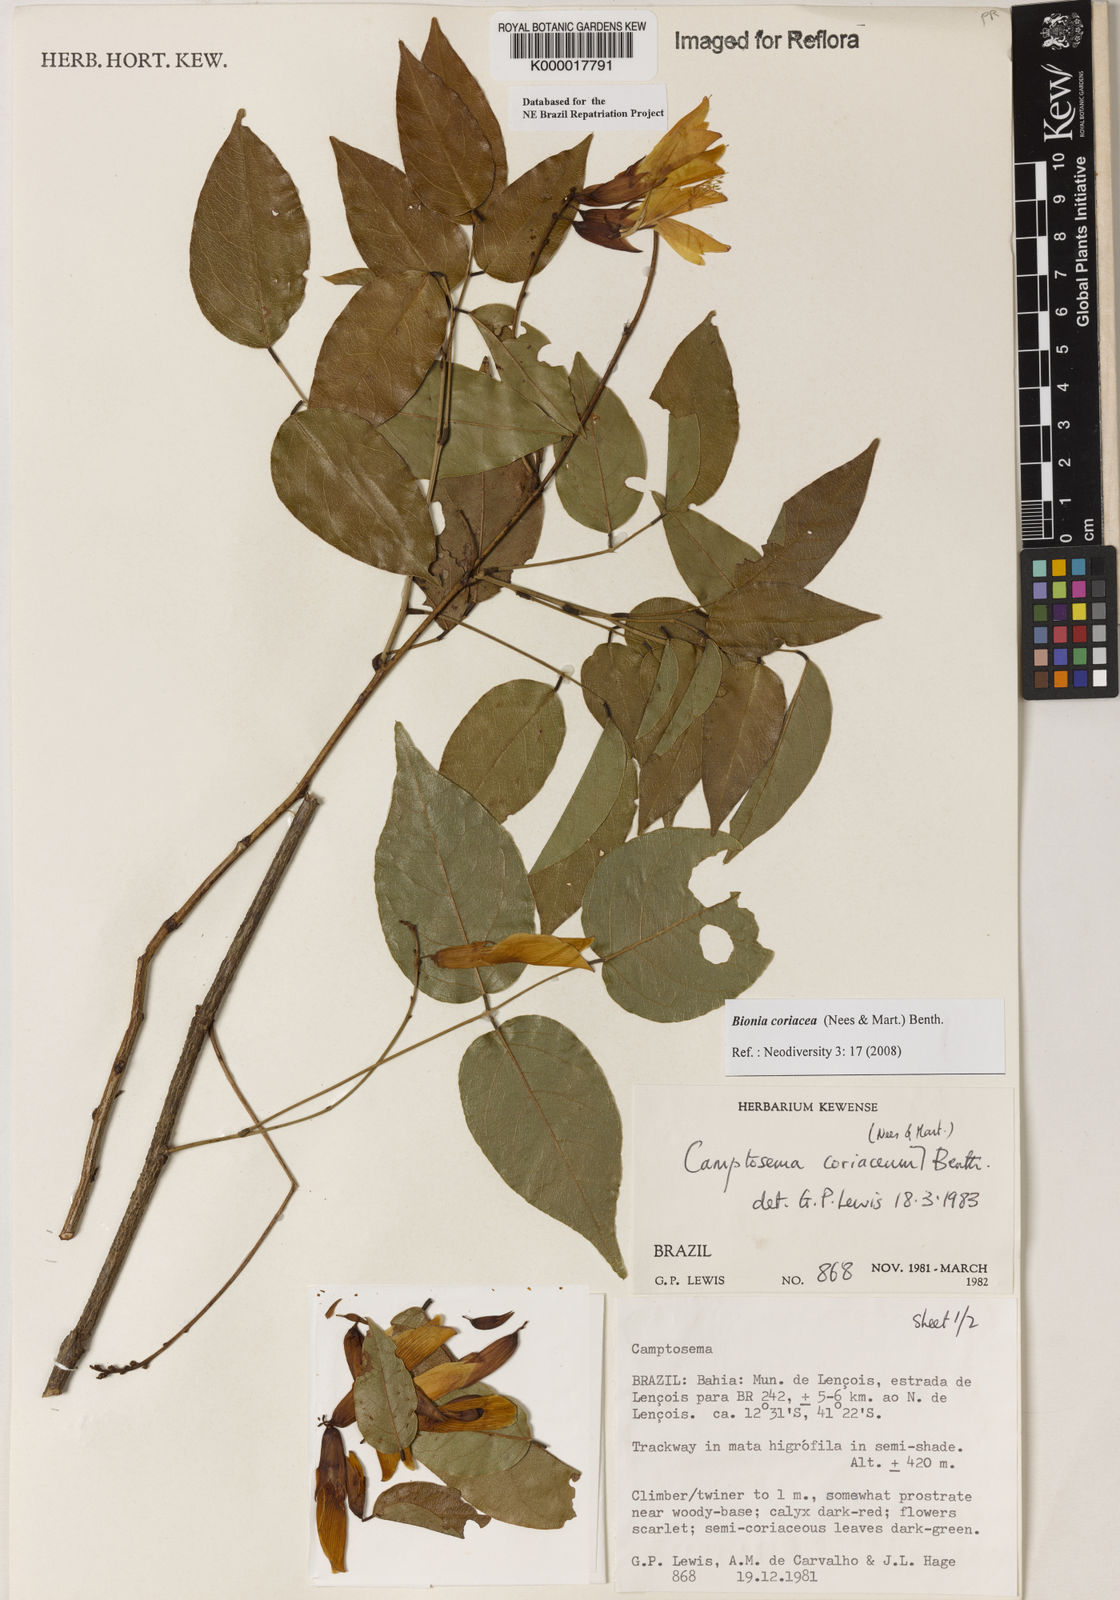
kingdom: Plantae
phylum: Tracheophyta
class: Magnoliopsida
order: Fabales
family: Fabaceae
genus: Camptosema
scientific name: Camptosema coriaceum
